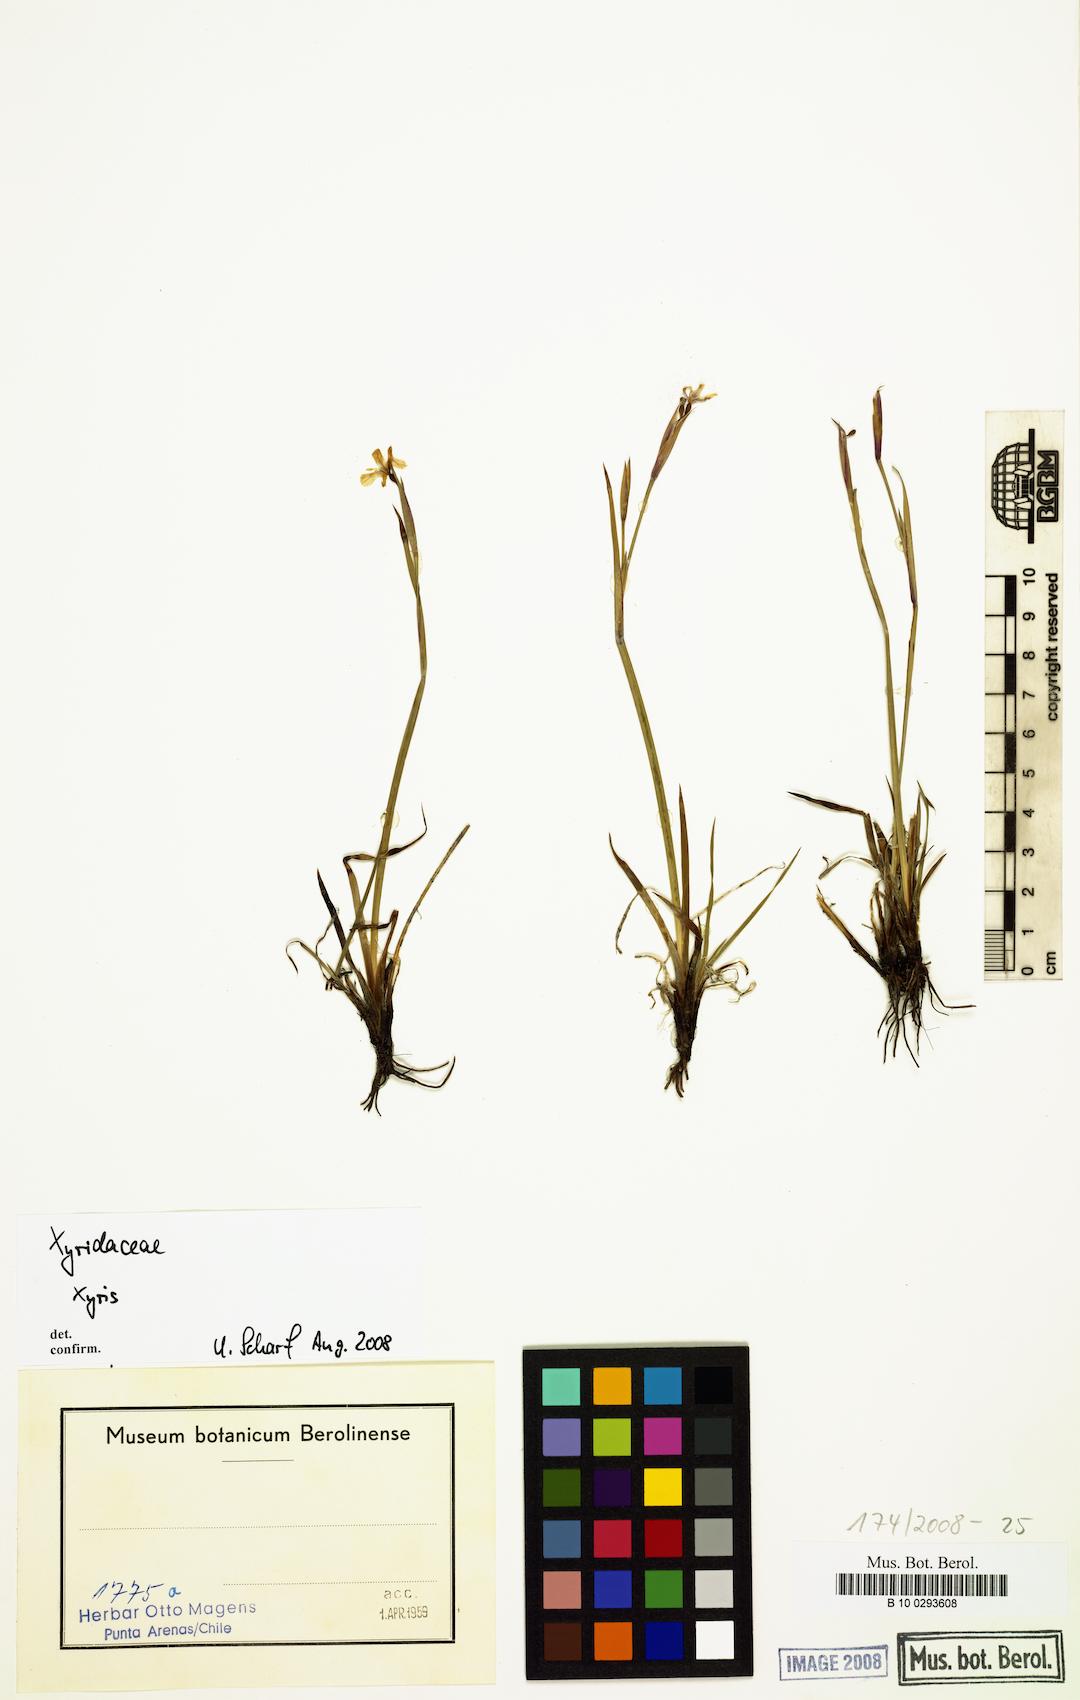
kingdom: Plantae
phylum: Tracheophyta
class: Liliopsida
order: Asparagales
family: Iridaceae
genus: Sisyrinchium
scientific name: Sisyrinchium
